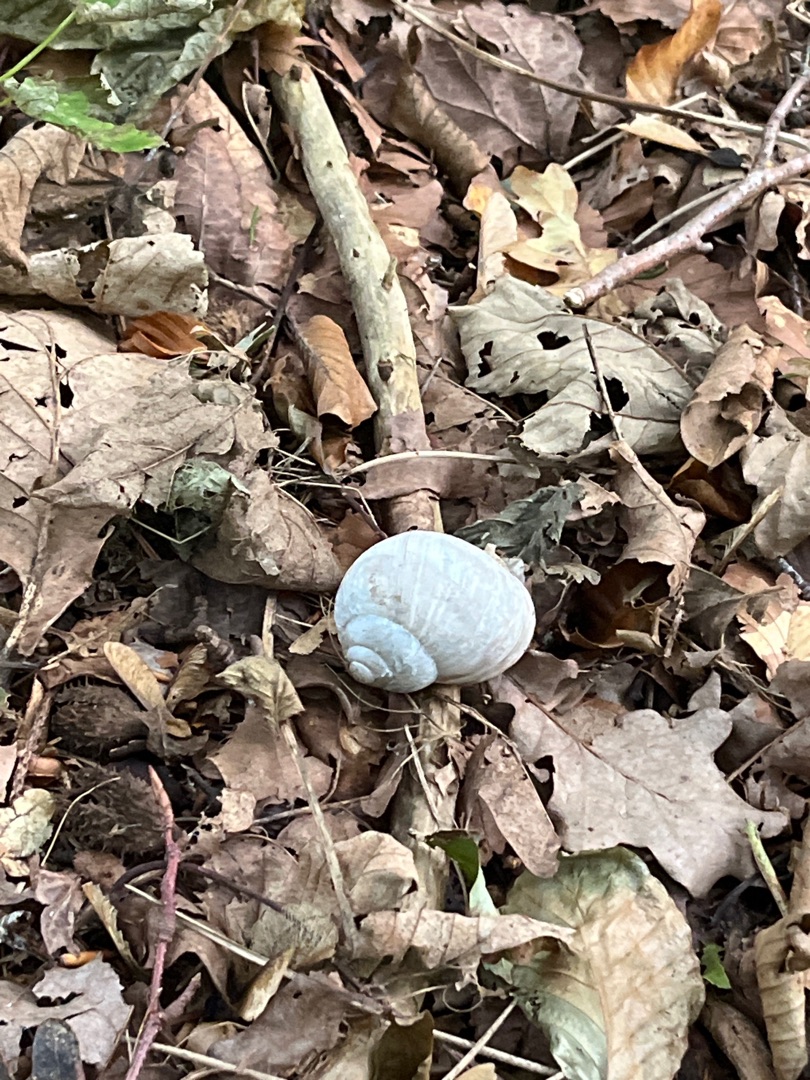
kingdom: Animalia
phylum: Mollusca
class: Gastropoda
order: Stylommatophora
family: Helicidae
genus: Helix
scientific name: Helix pomatia
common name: Vinbjergsnegl
